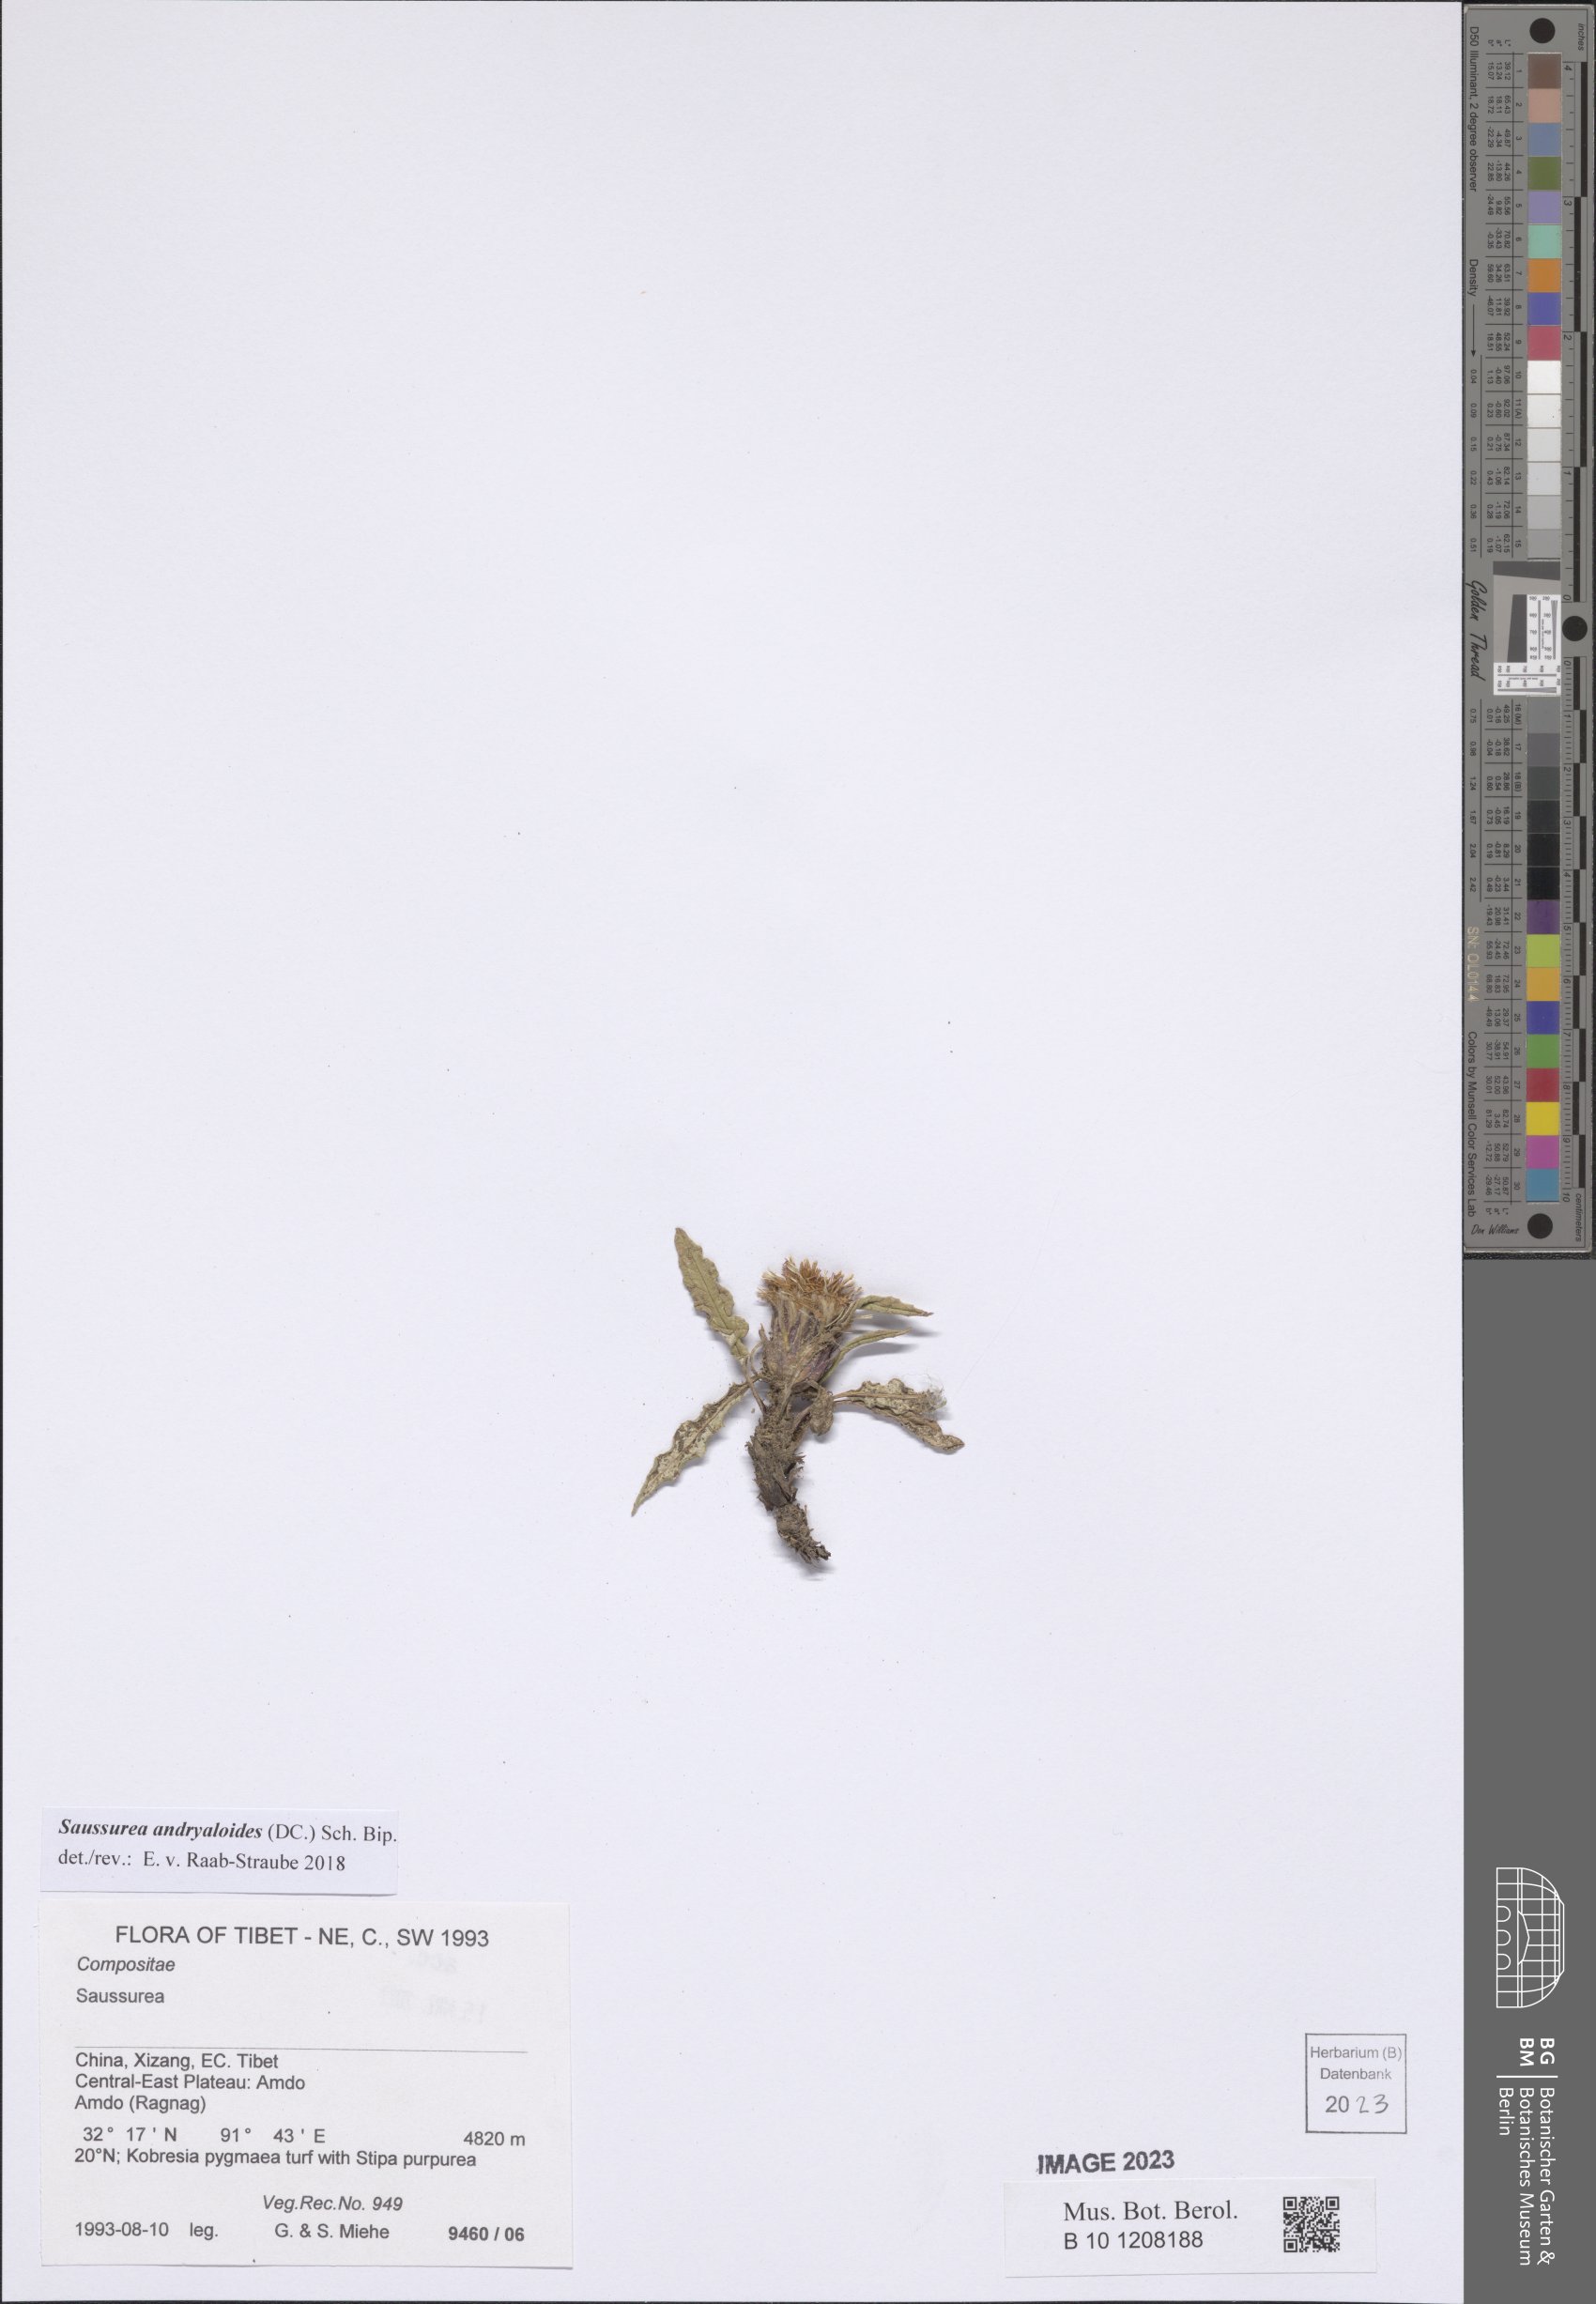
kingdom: Plantae
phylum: Tracheophyta
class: Magnoliopsida
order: Asterales
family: Asteraceae
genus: Saussurea
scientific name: Saussurea andryaloides
